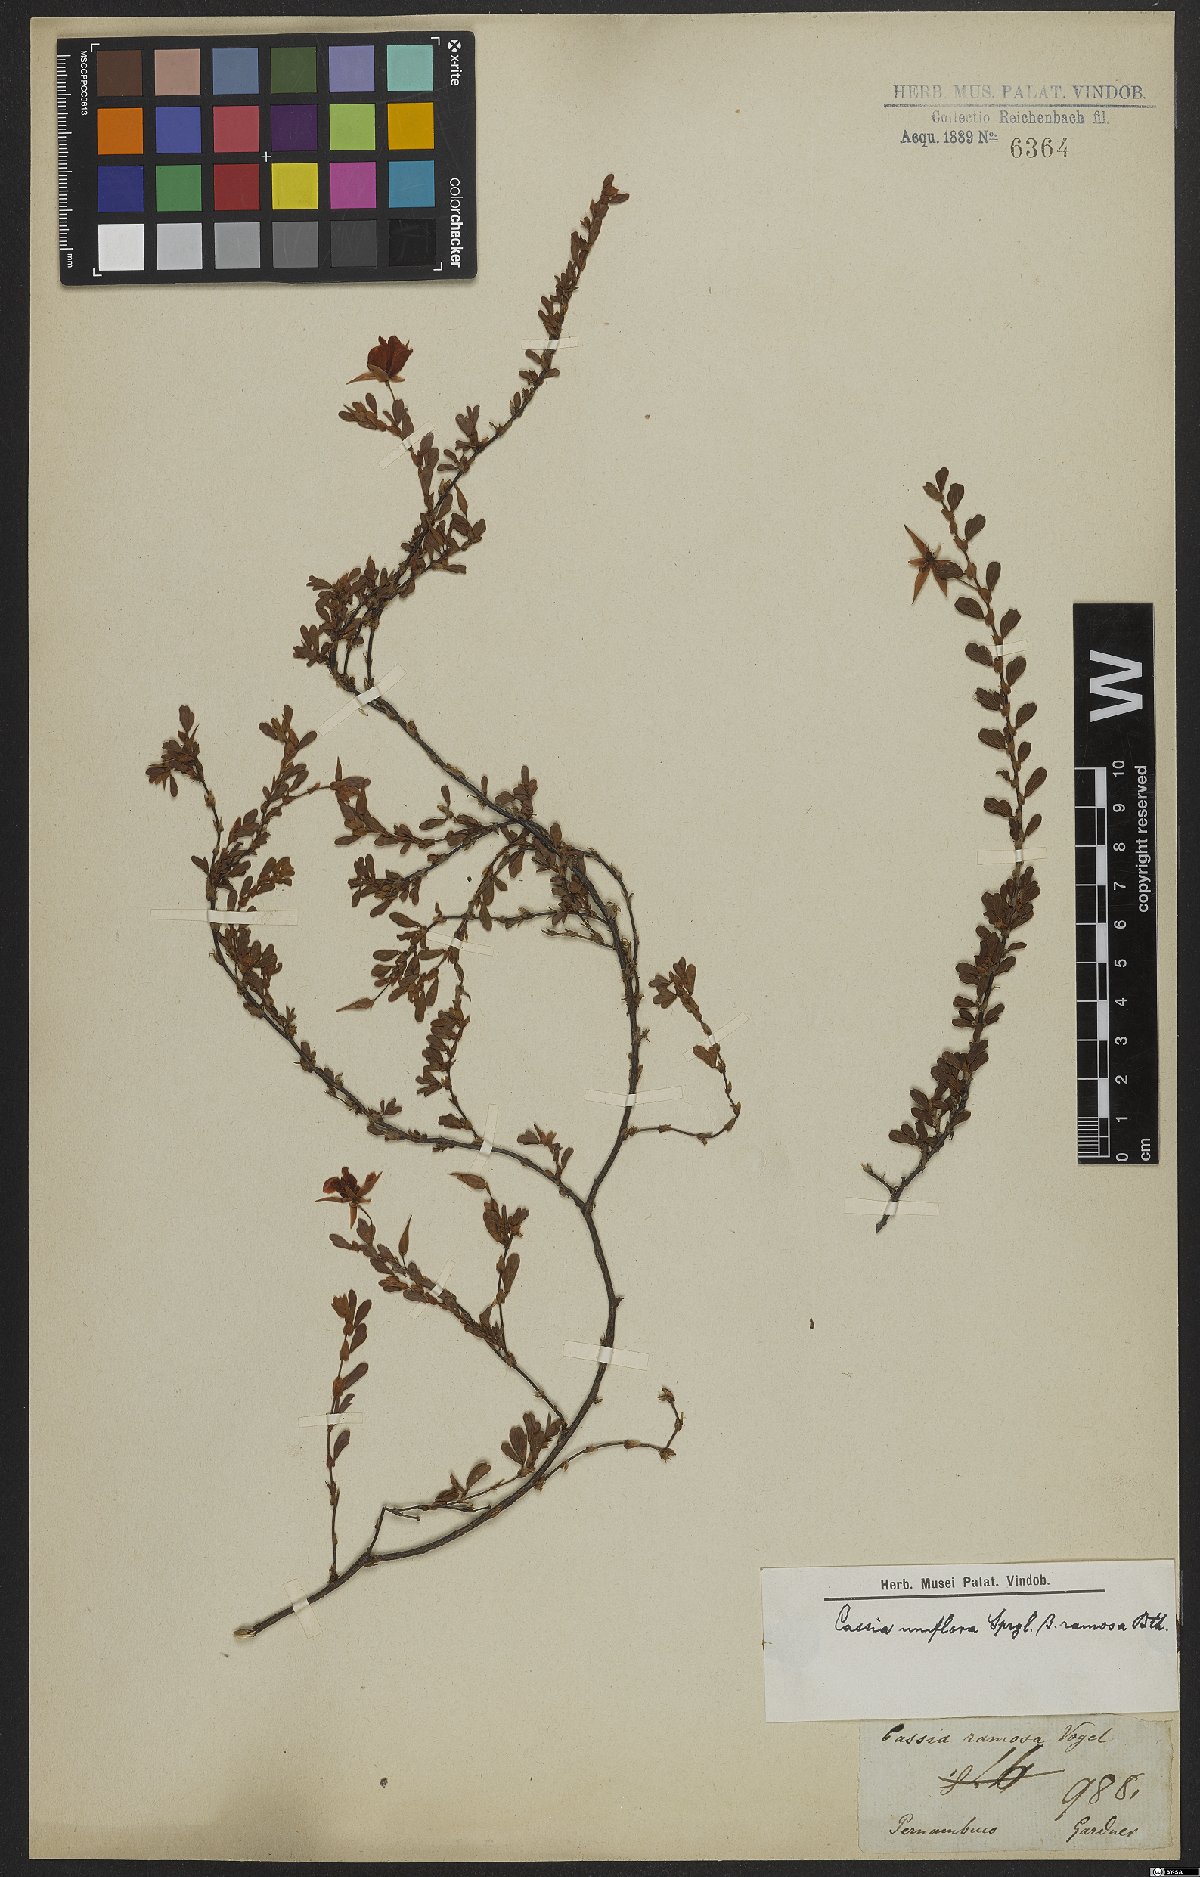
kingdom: Plantae
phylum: Tracheophyta
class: Magnoliopsida
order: Fabales
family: Fabaceae
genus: Senna
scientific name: Senna uniflora
